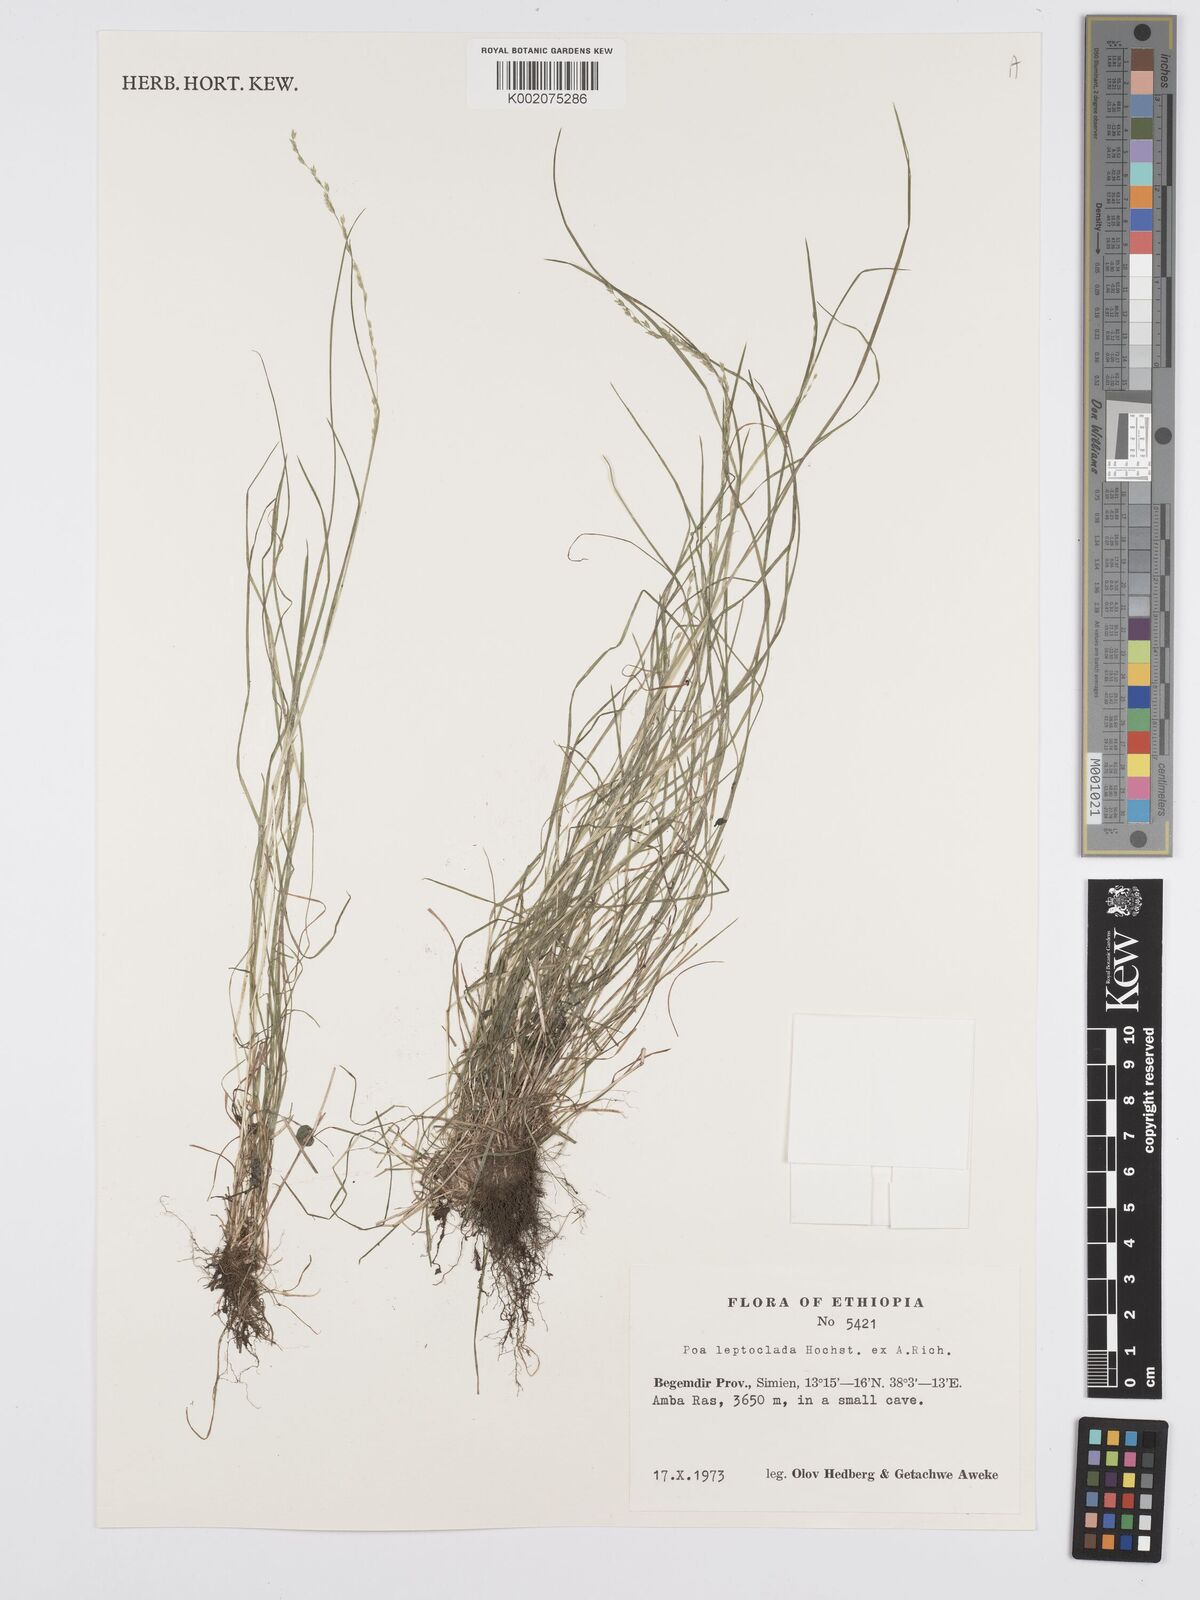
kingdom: Plantae
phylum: Tracheophyta
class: Liliopsida
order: Poales
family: Poaceae
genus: Poa
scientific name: Poa leptoclada
